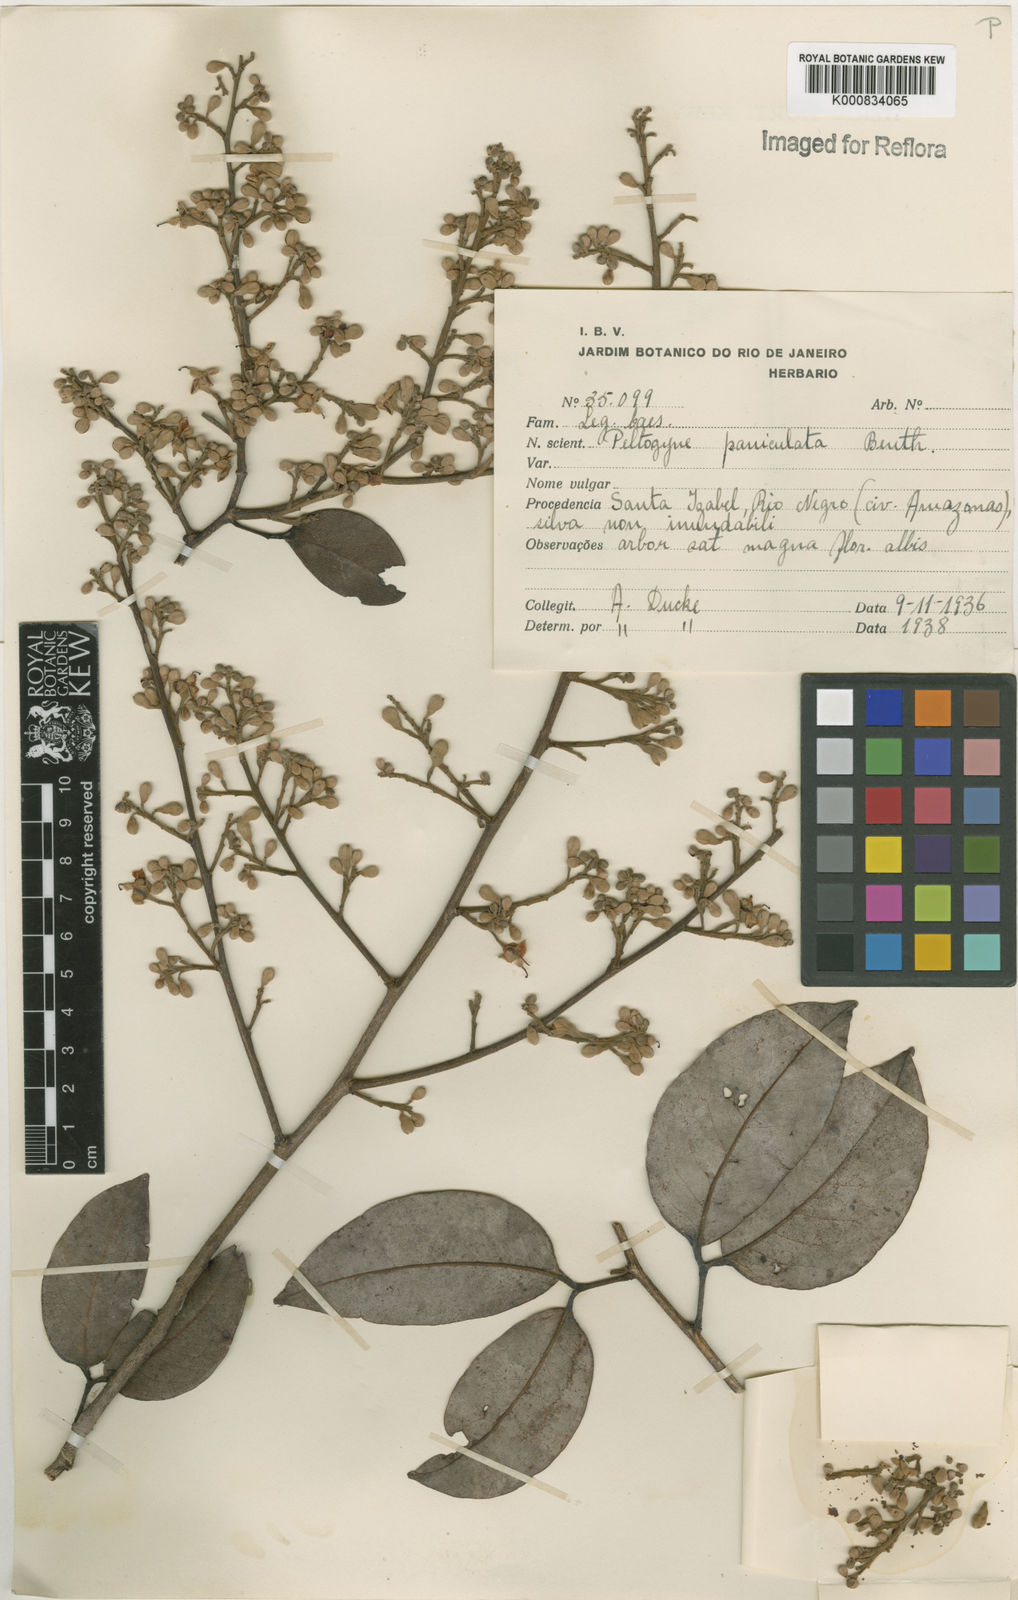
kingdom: Plantae
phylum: Tracheophyta
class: Magnoliopsida
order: Fabales
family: Fabaceae
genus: Peltogyne
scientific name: Peltogyne paniculata
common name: Purpleheart
